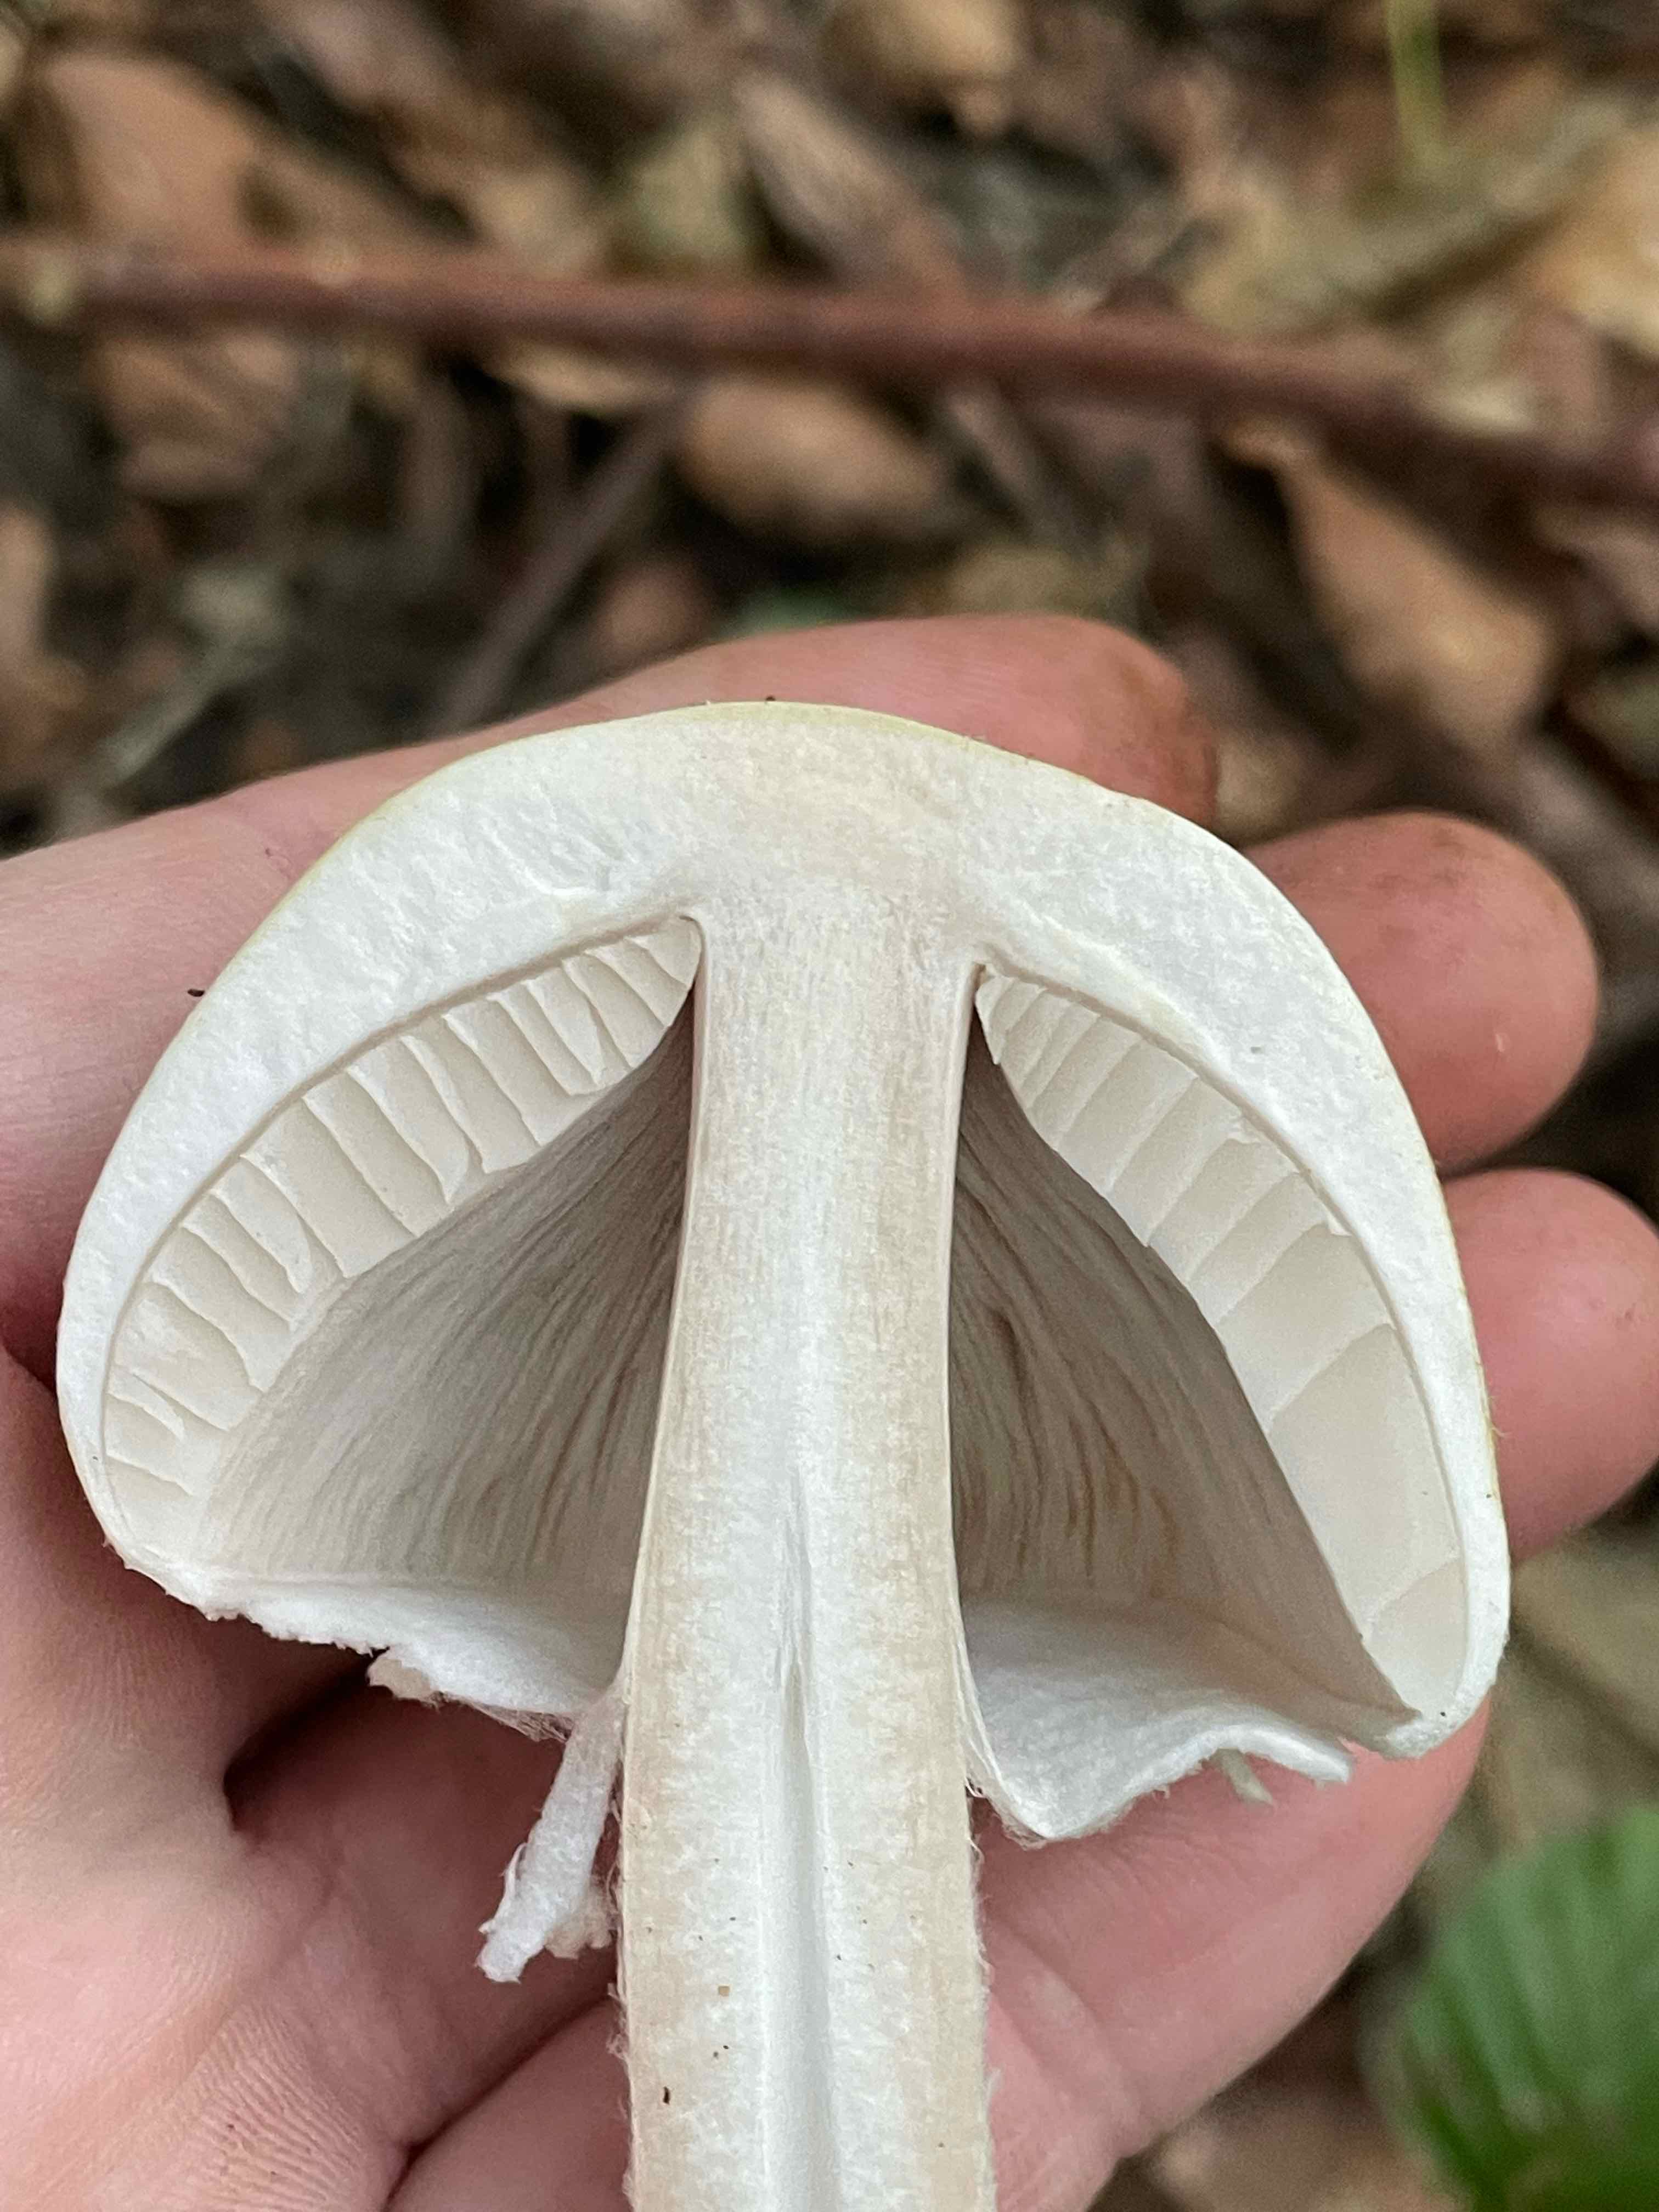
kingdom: Fungi
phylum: Basidiomycota
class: Agaricomycetes
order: Agaricales
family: Agaricaceae
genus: Agaricus
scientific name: Agaricus sylvicola
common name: gulhvid champignon
